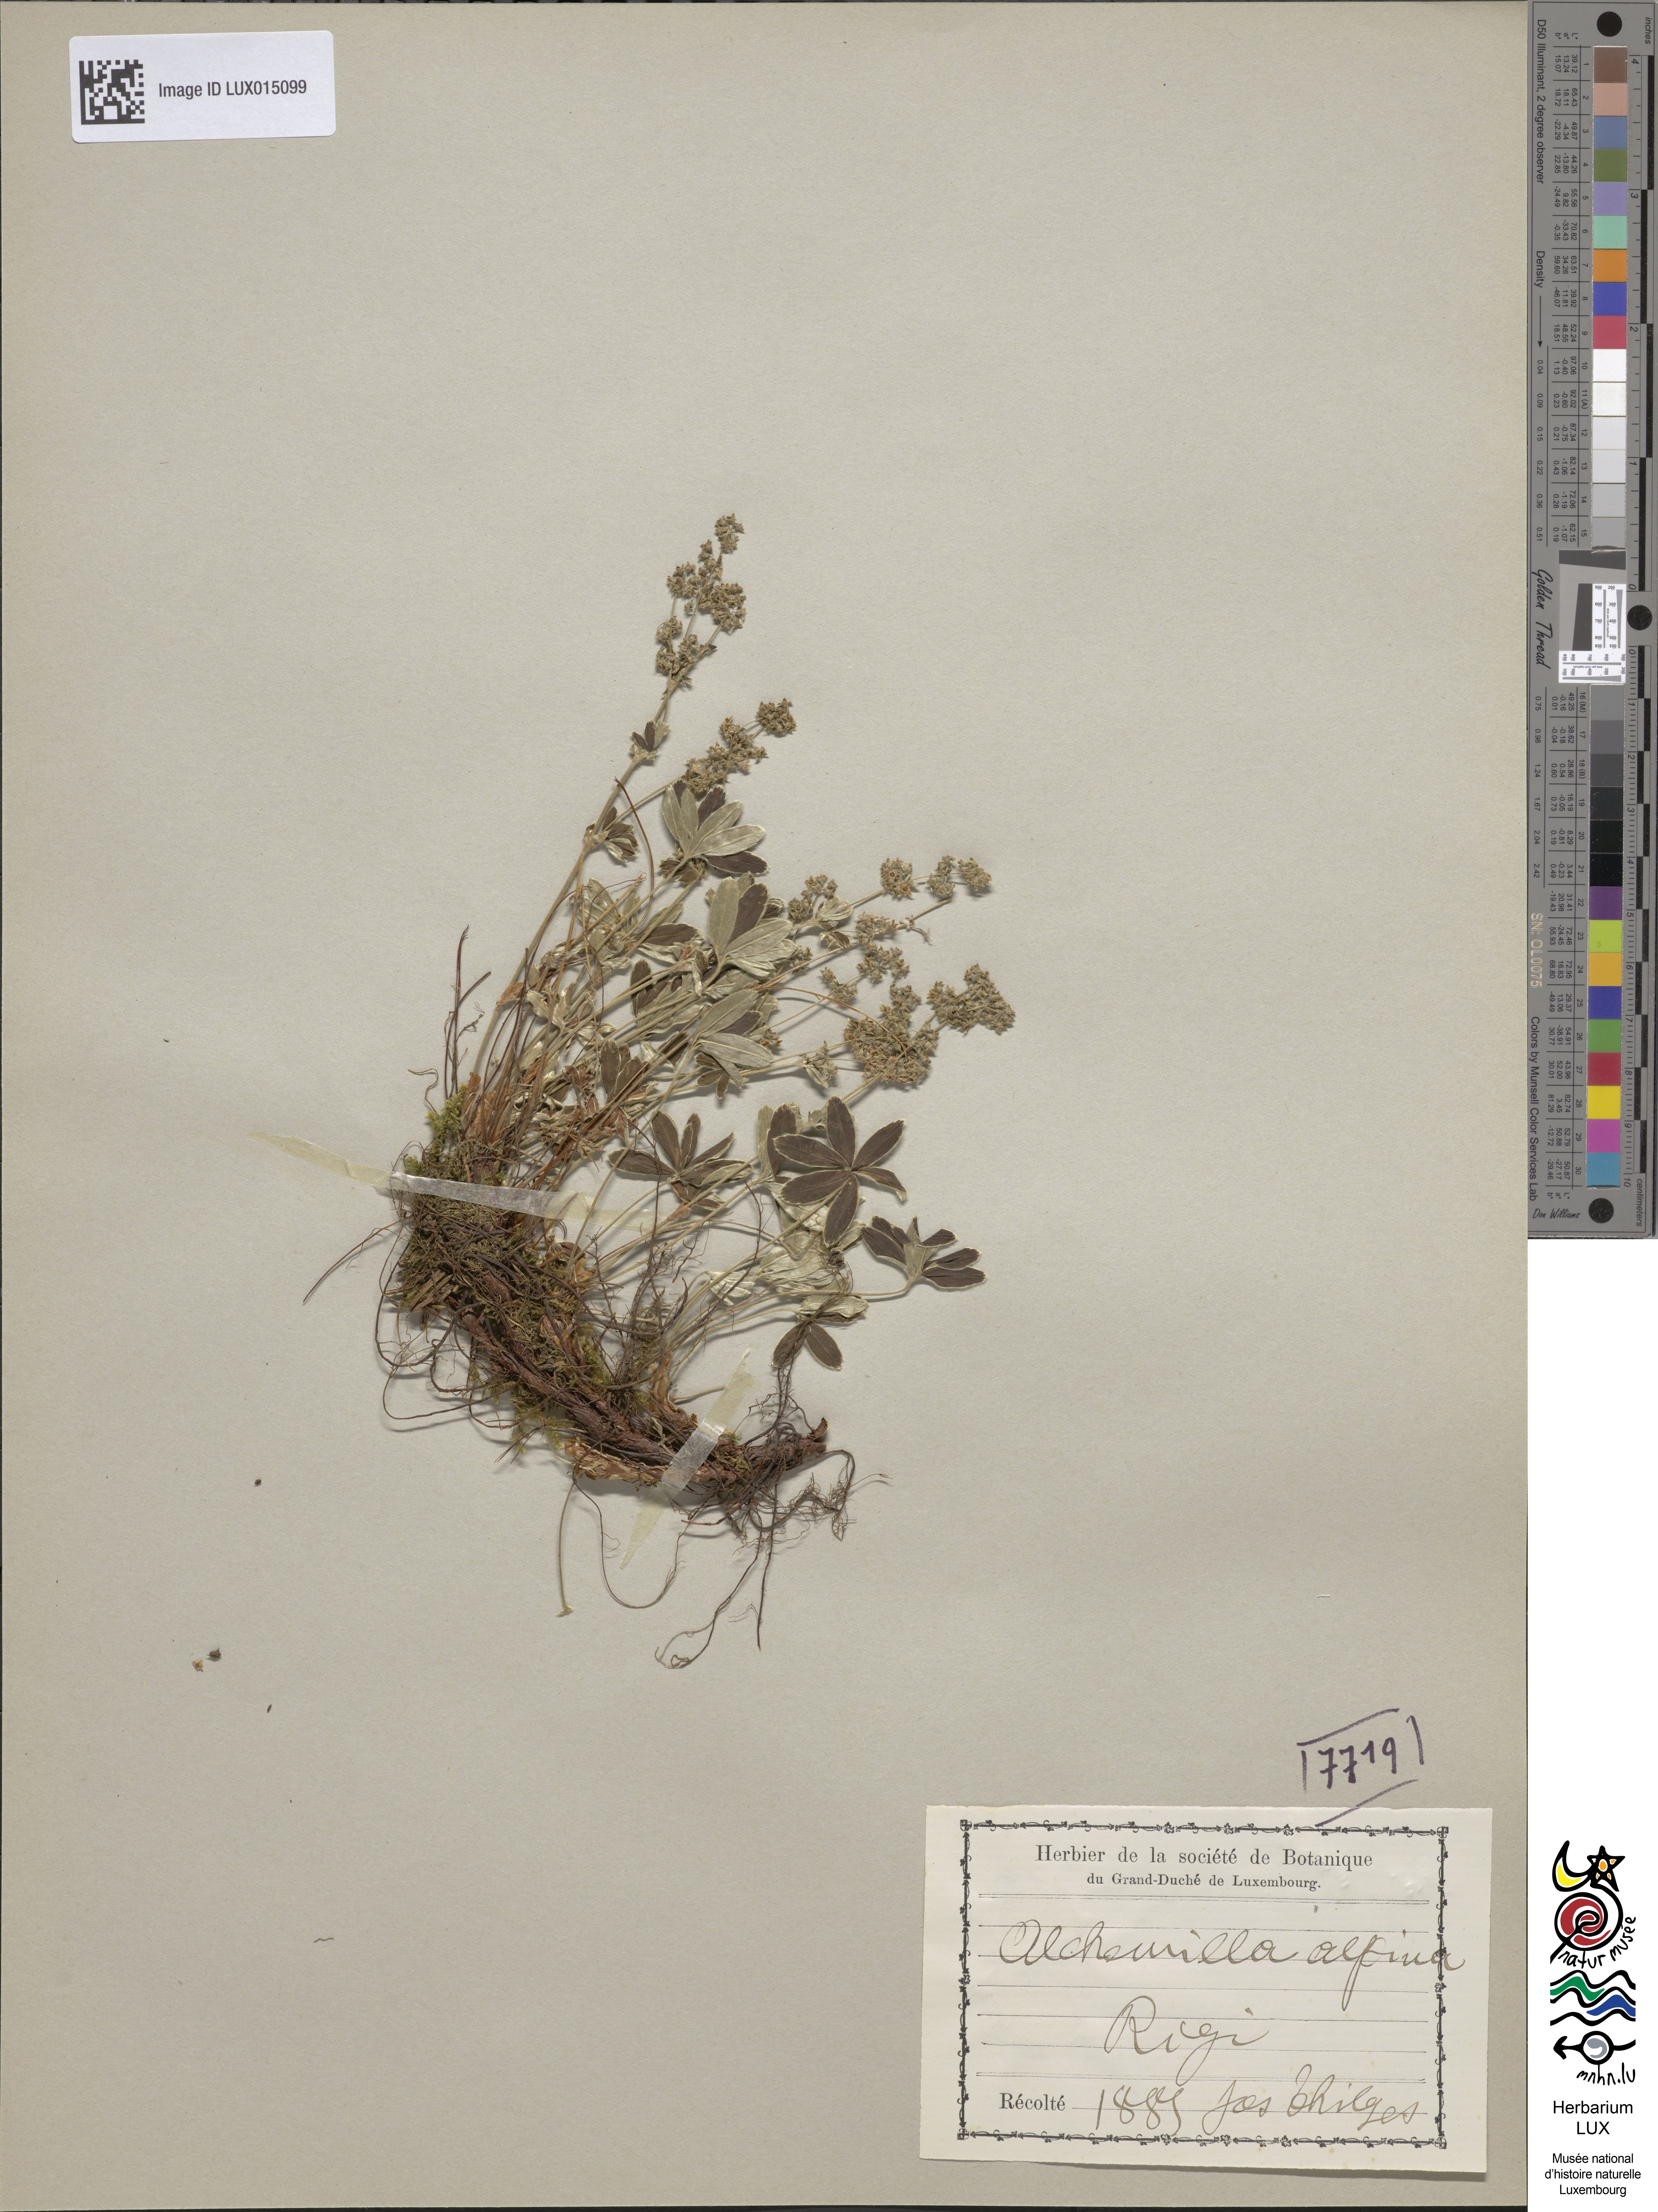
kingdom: Plantae
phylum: Tracheophyta
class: Magnoliopsida
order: Rosales
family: Rosaceae
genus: Alchemilla
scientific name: Alchemilla alpina
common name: Alpine lady's-mantle
